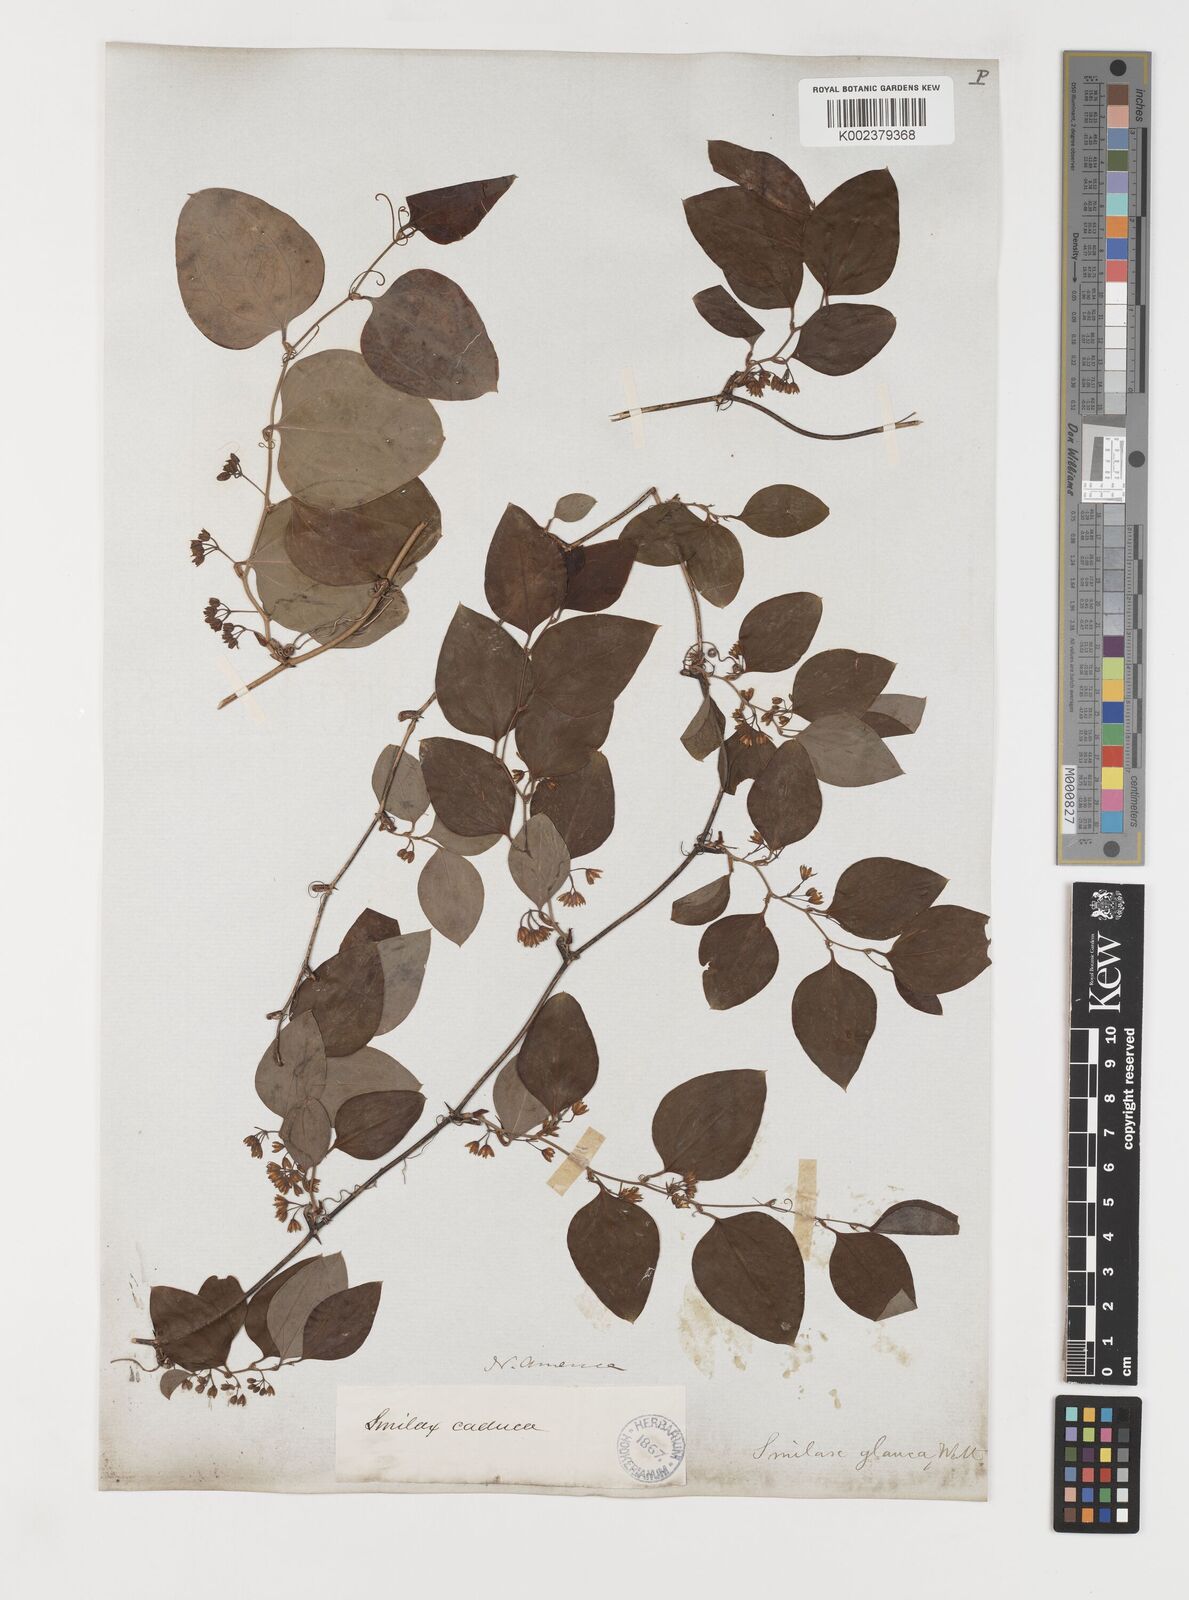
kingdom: Plantae
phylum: Tracheophyta
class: Liliopsida
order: Liliales
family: Smilacaceae
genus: Smilax
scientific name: Smilax glauca
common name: Cat greenbrier
